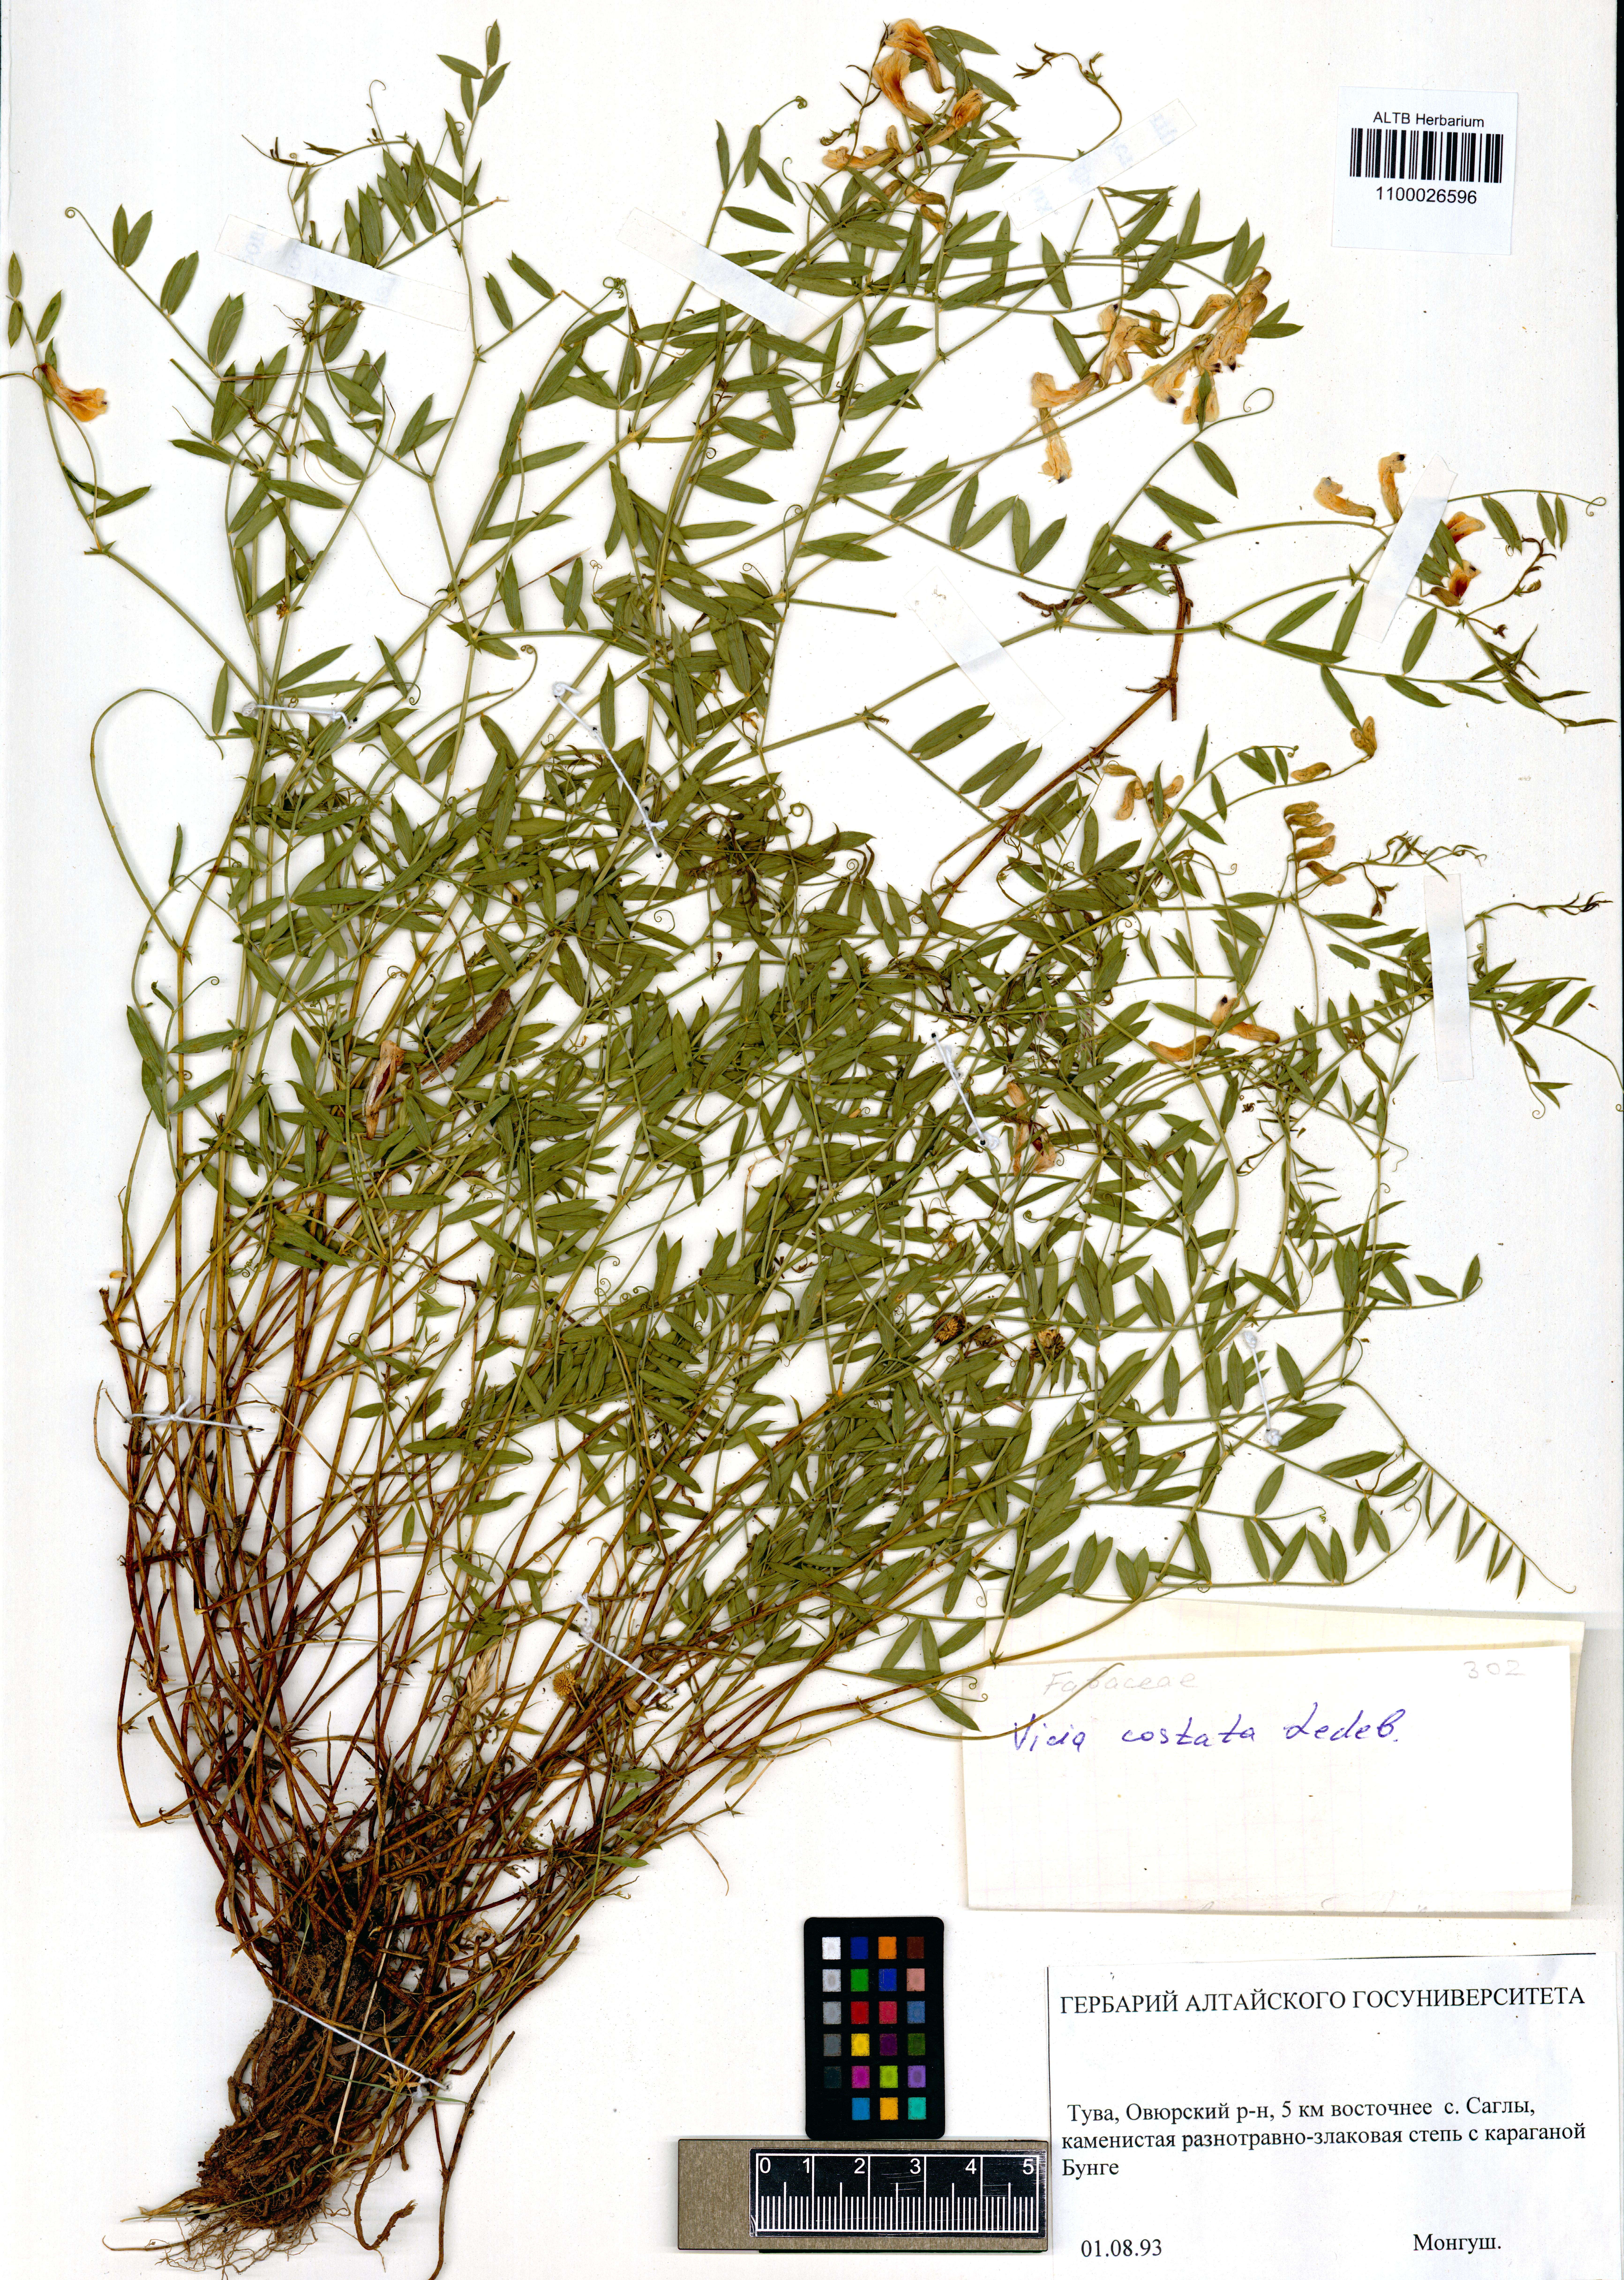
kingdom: Plantae
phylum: Tracheophyta
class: Magnoliopsida
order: Fabales
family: Fabaceae
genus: Vicia
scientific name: Vicia costata
